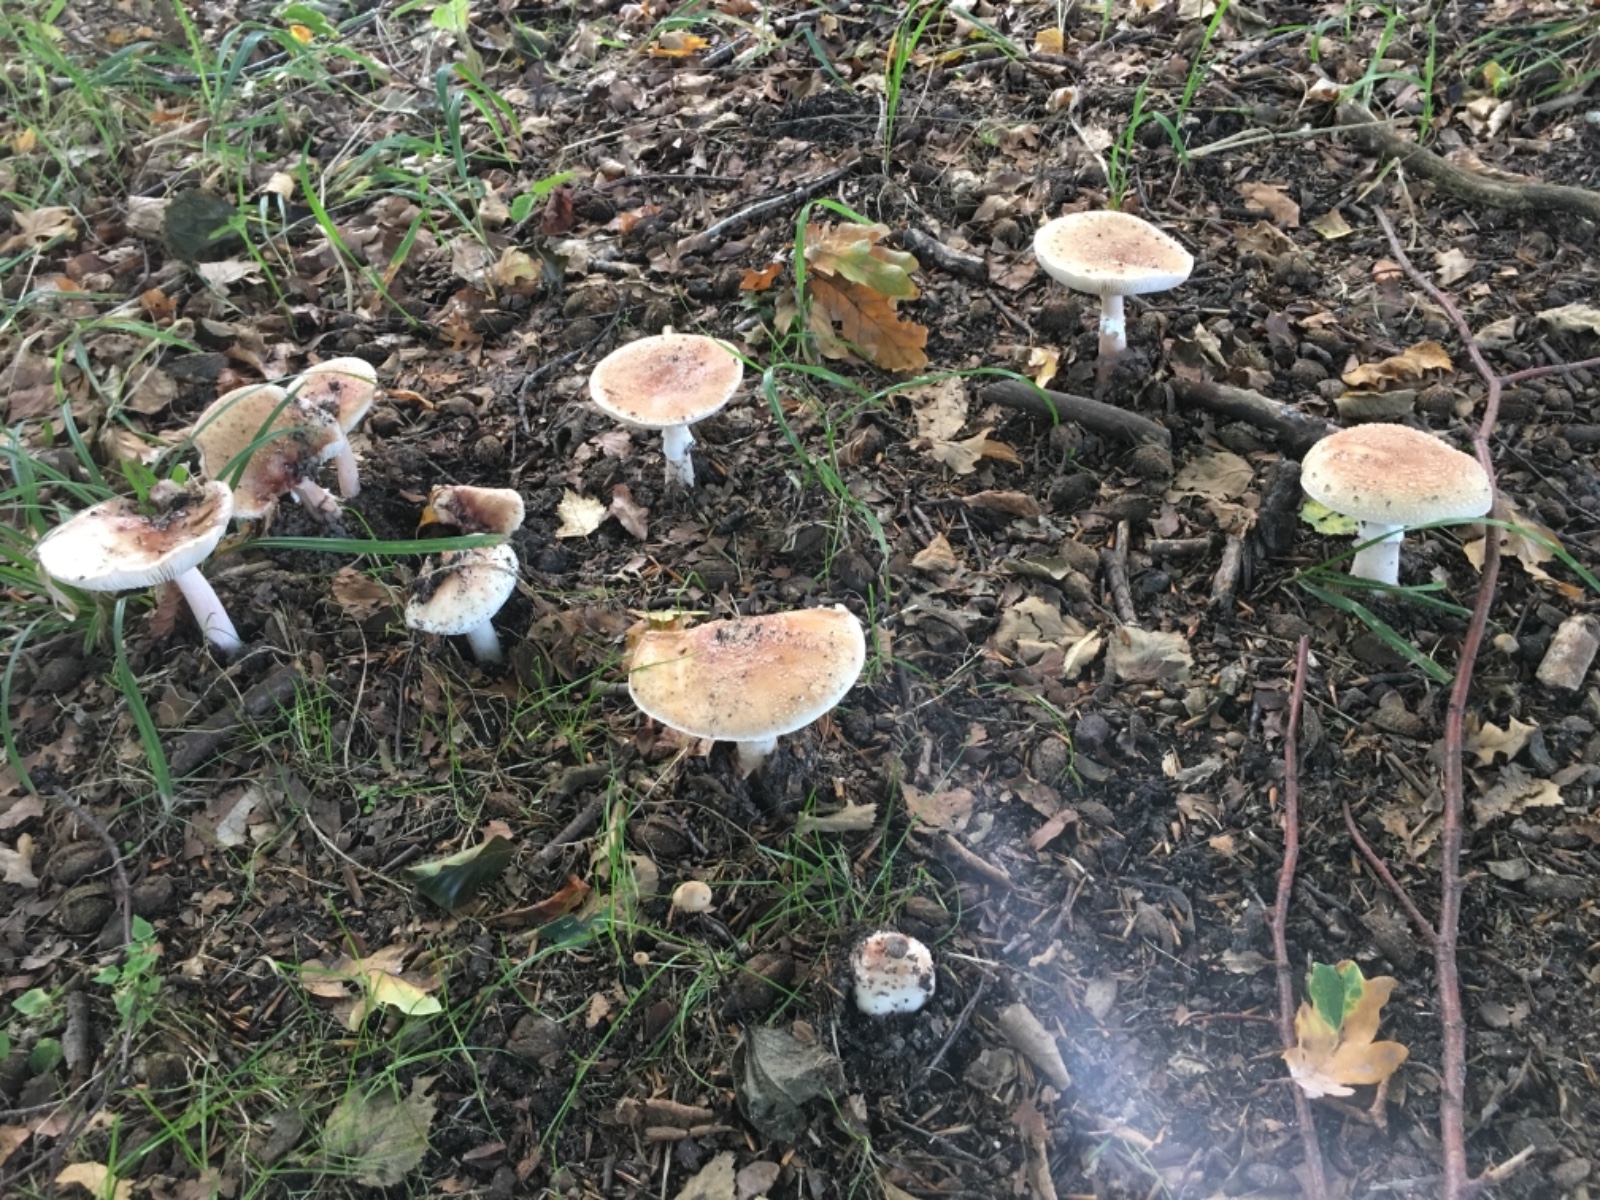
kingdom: Fungi
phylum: Basidiomycota
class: Agaricomycetes
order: Agaricales
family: Amanitaceae
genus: Amanita
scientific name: Amanita rubescens
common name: rødmende fluesvamp
